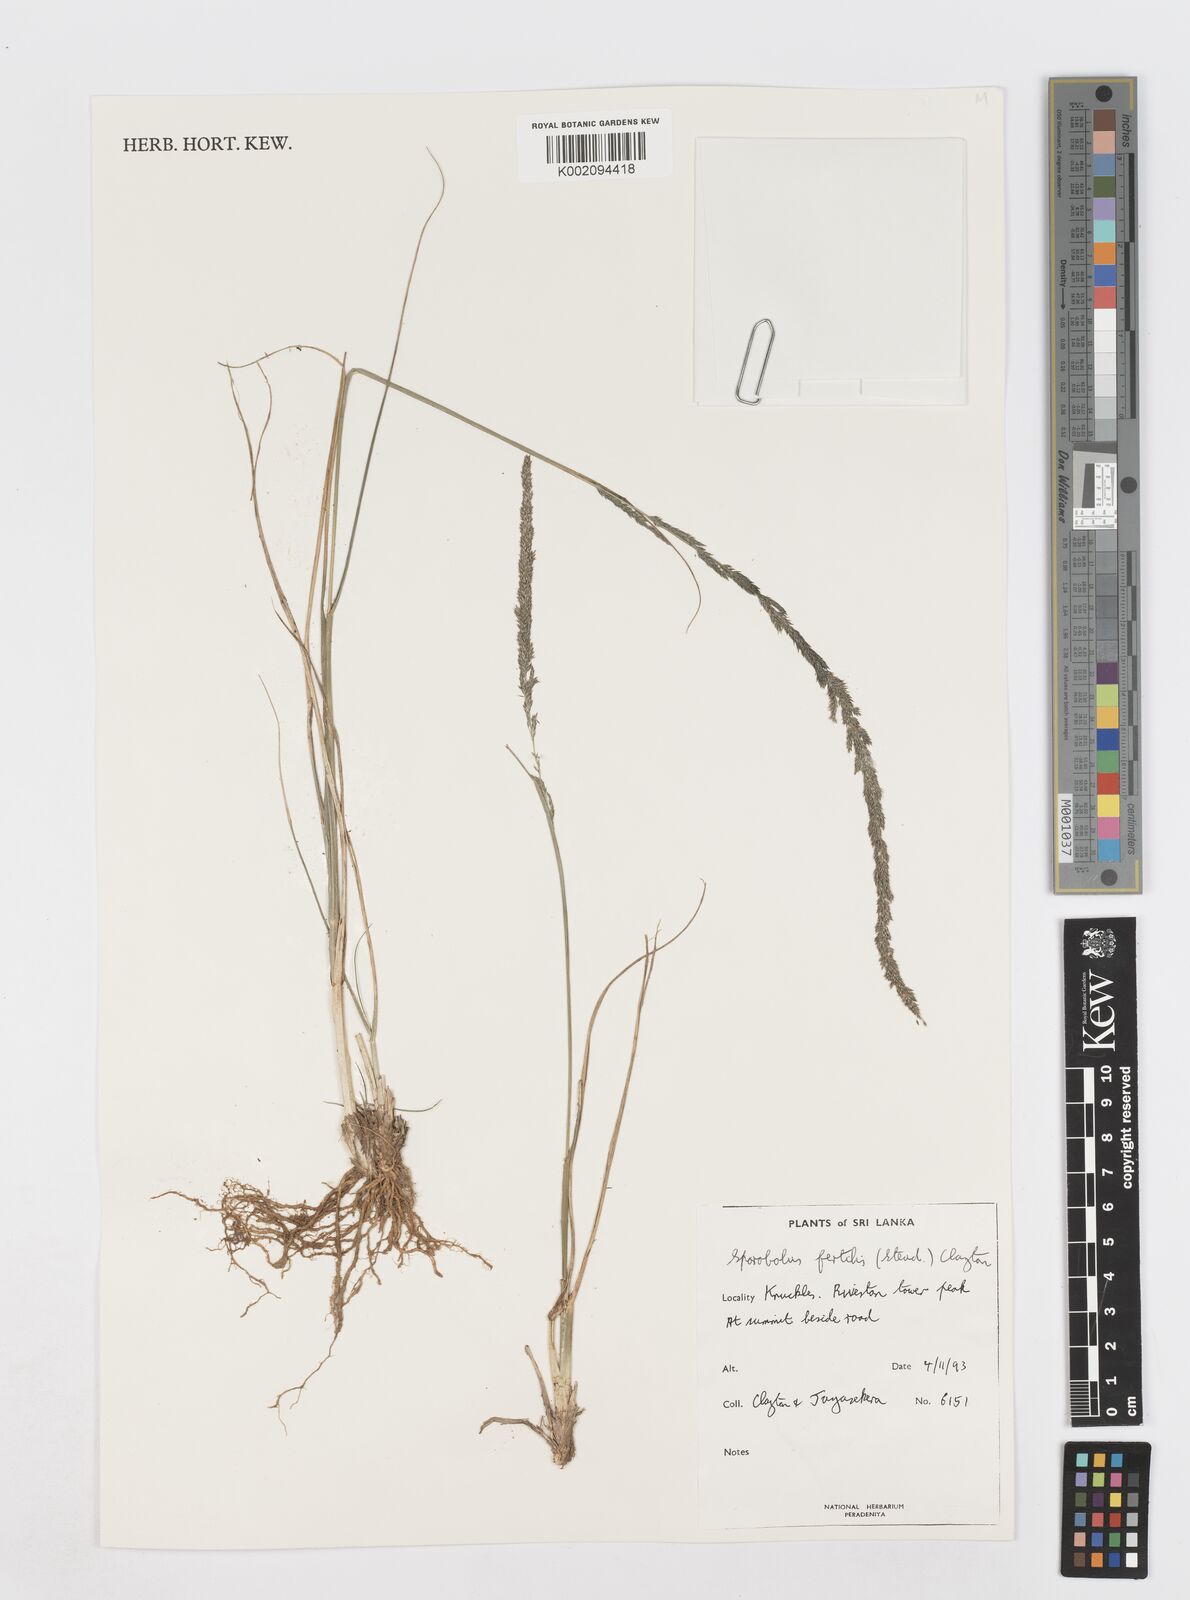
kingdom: Plantae
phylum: Tracheophyta
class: Liliopsida
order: Poales
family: Poaceae
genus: Sporobolus
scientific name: Sporobolus fertilis
